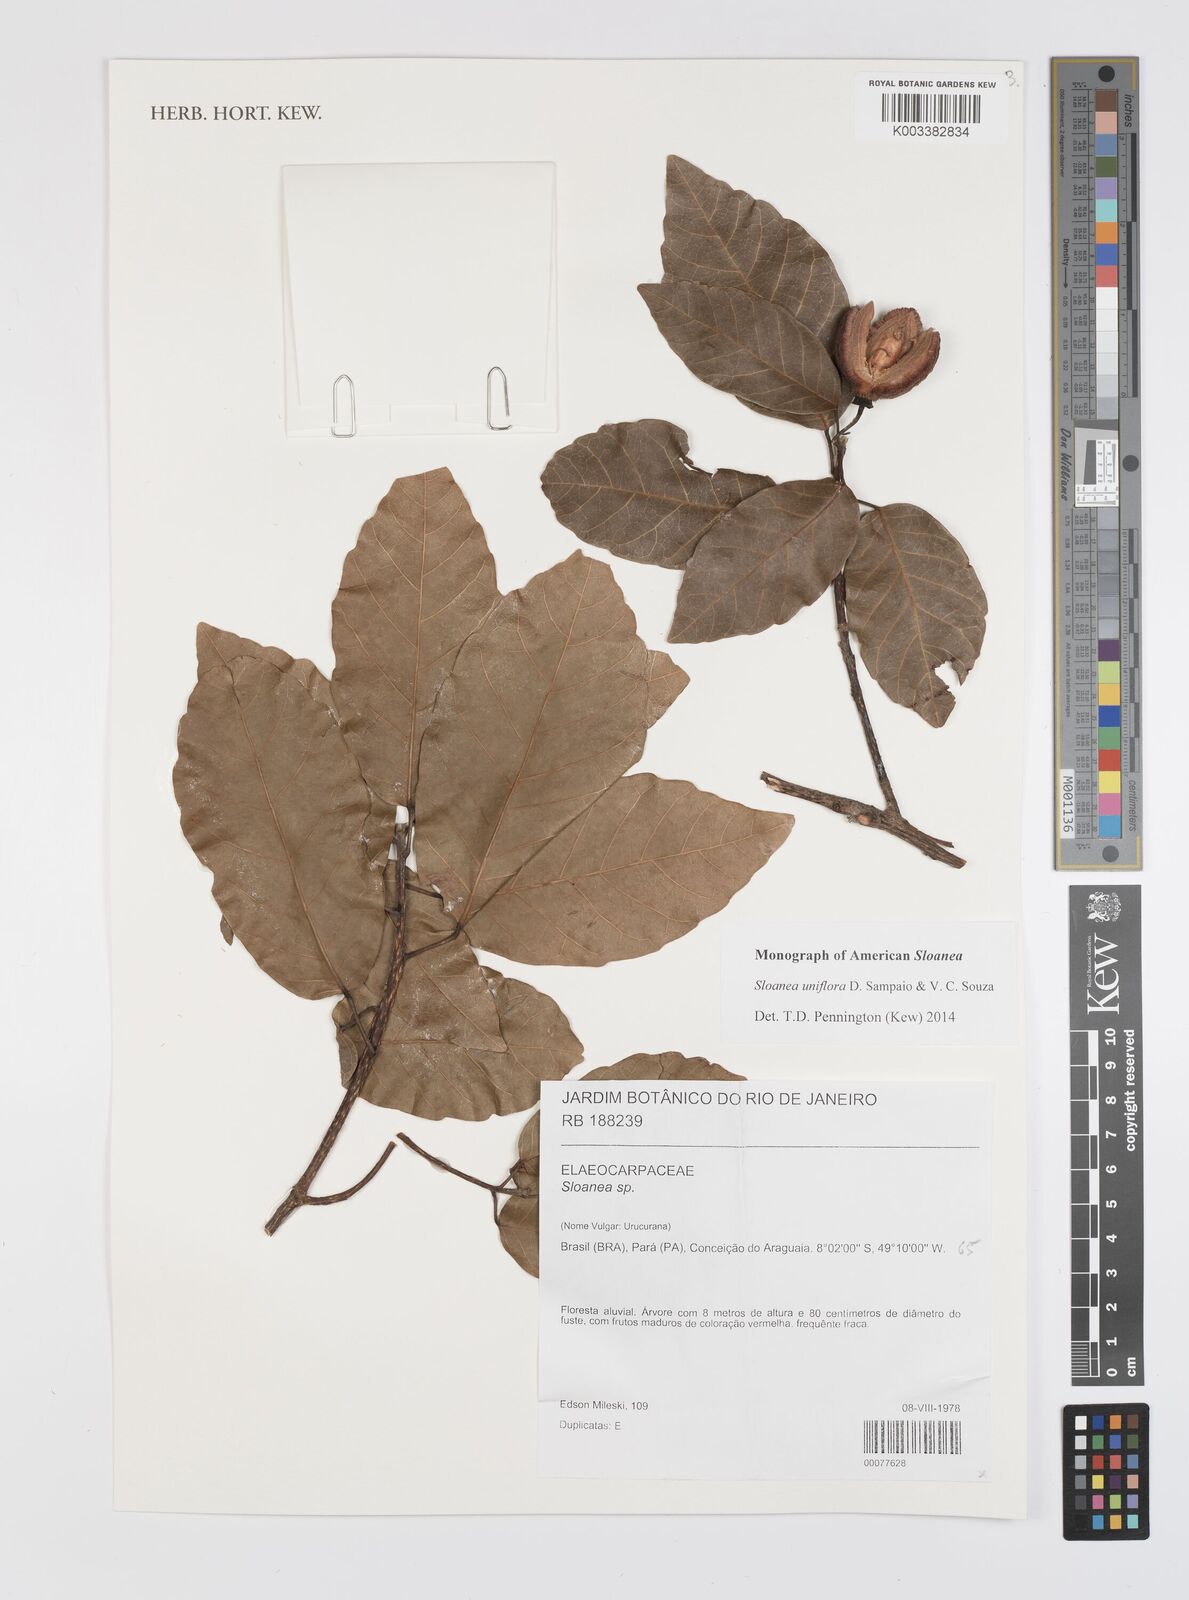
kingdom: Plantae
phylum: Tracheophyta
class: Magnoliopsida
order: Oxalidales
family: Elaeocarpaceae
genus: Sloanea
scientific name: Sloanea uniflora
